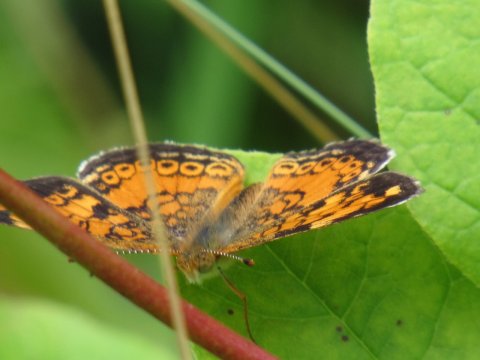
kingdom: Animalia
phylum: Arthropoda
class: Insecta
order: Lepidoptera
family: Nymphalidae
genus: Phyciodes
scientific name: Phyciodes
